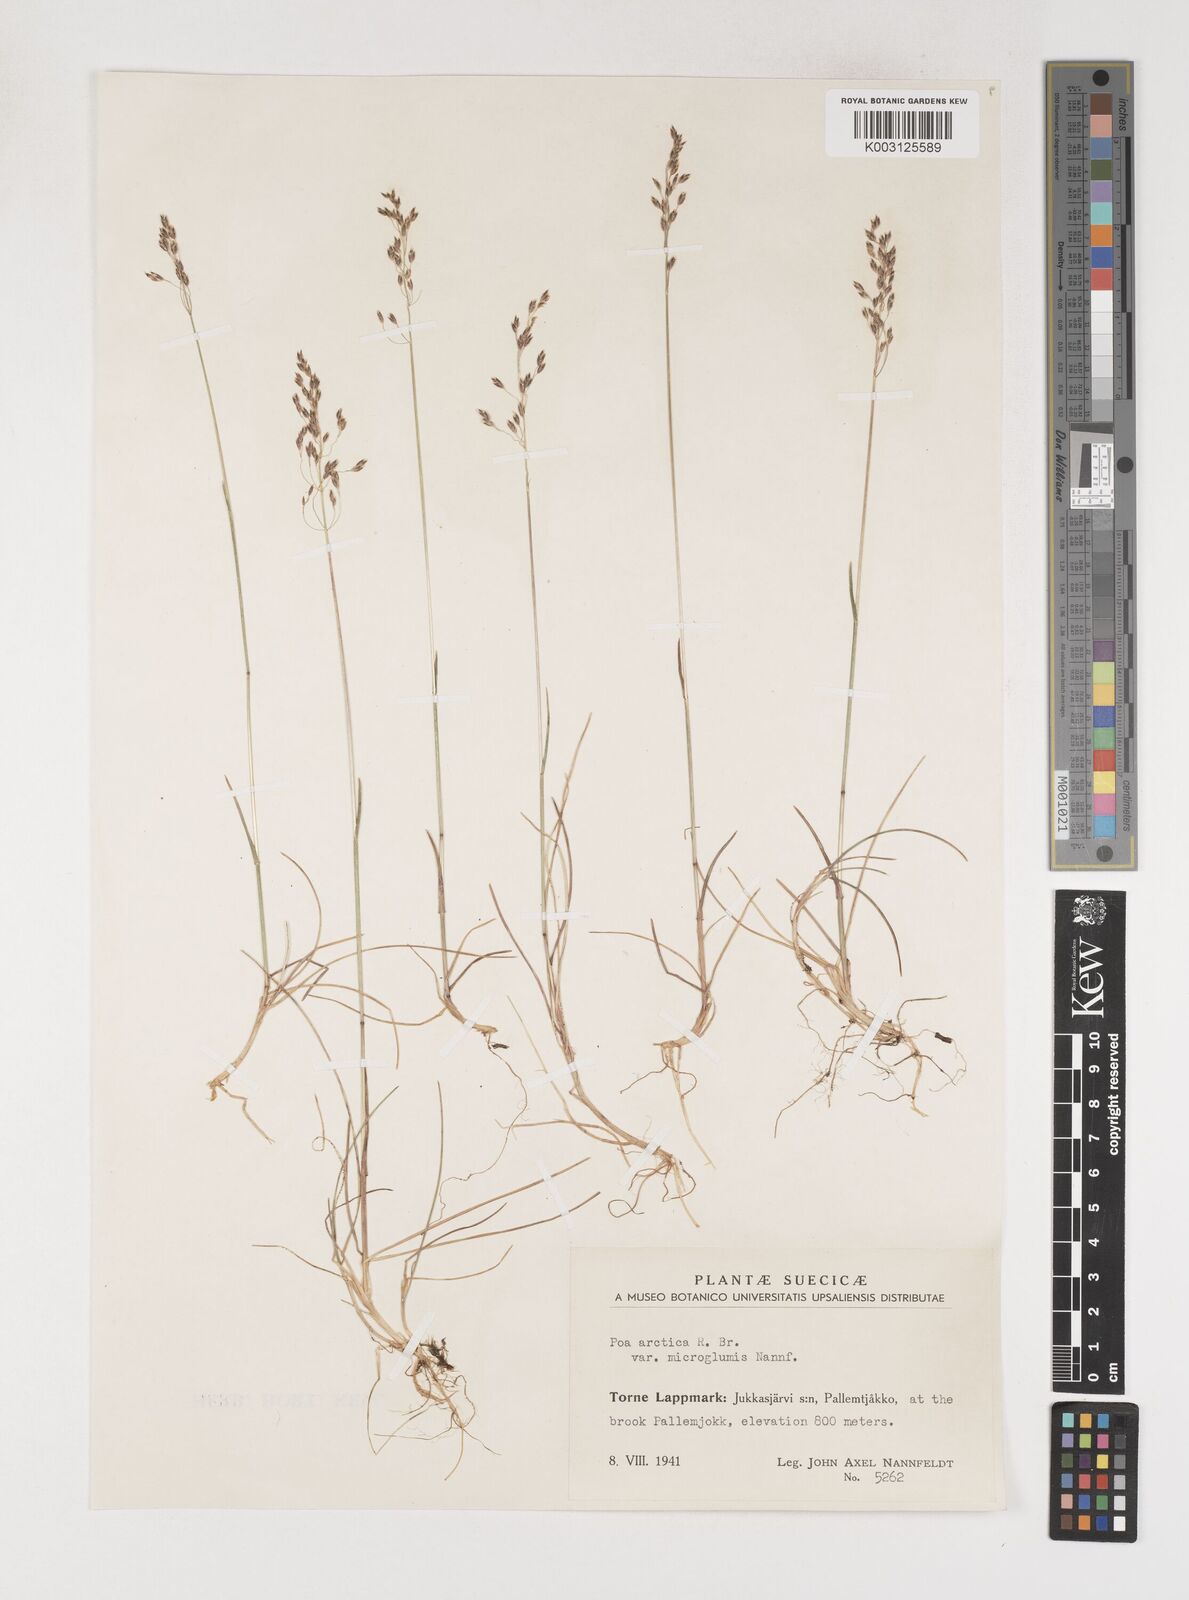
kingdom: Plantae
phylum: Tracheophyta
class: Liliopsida
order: Poales
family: Poaceae
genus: Poa
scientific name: Poa arctica
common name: Arctic bluegrass
